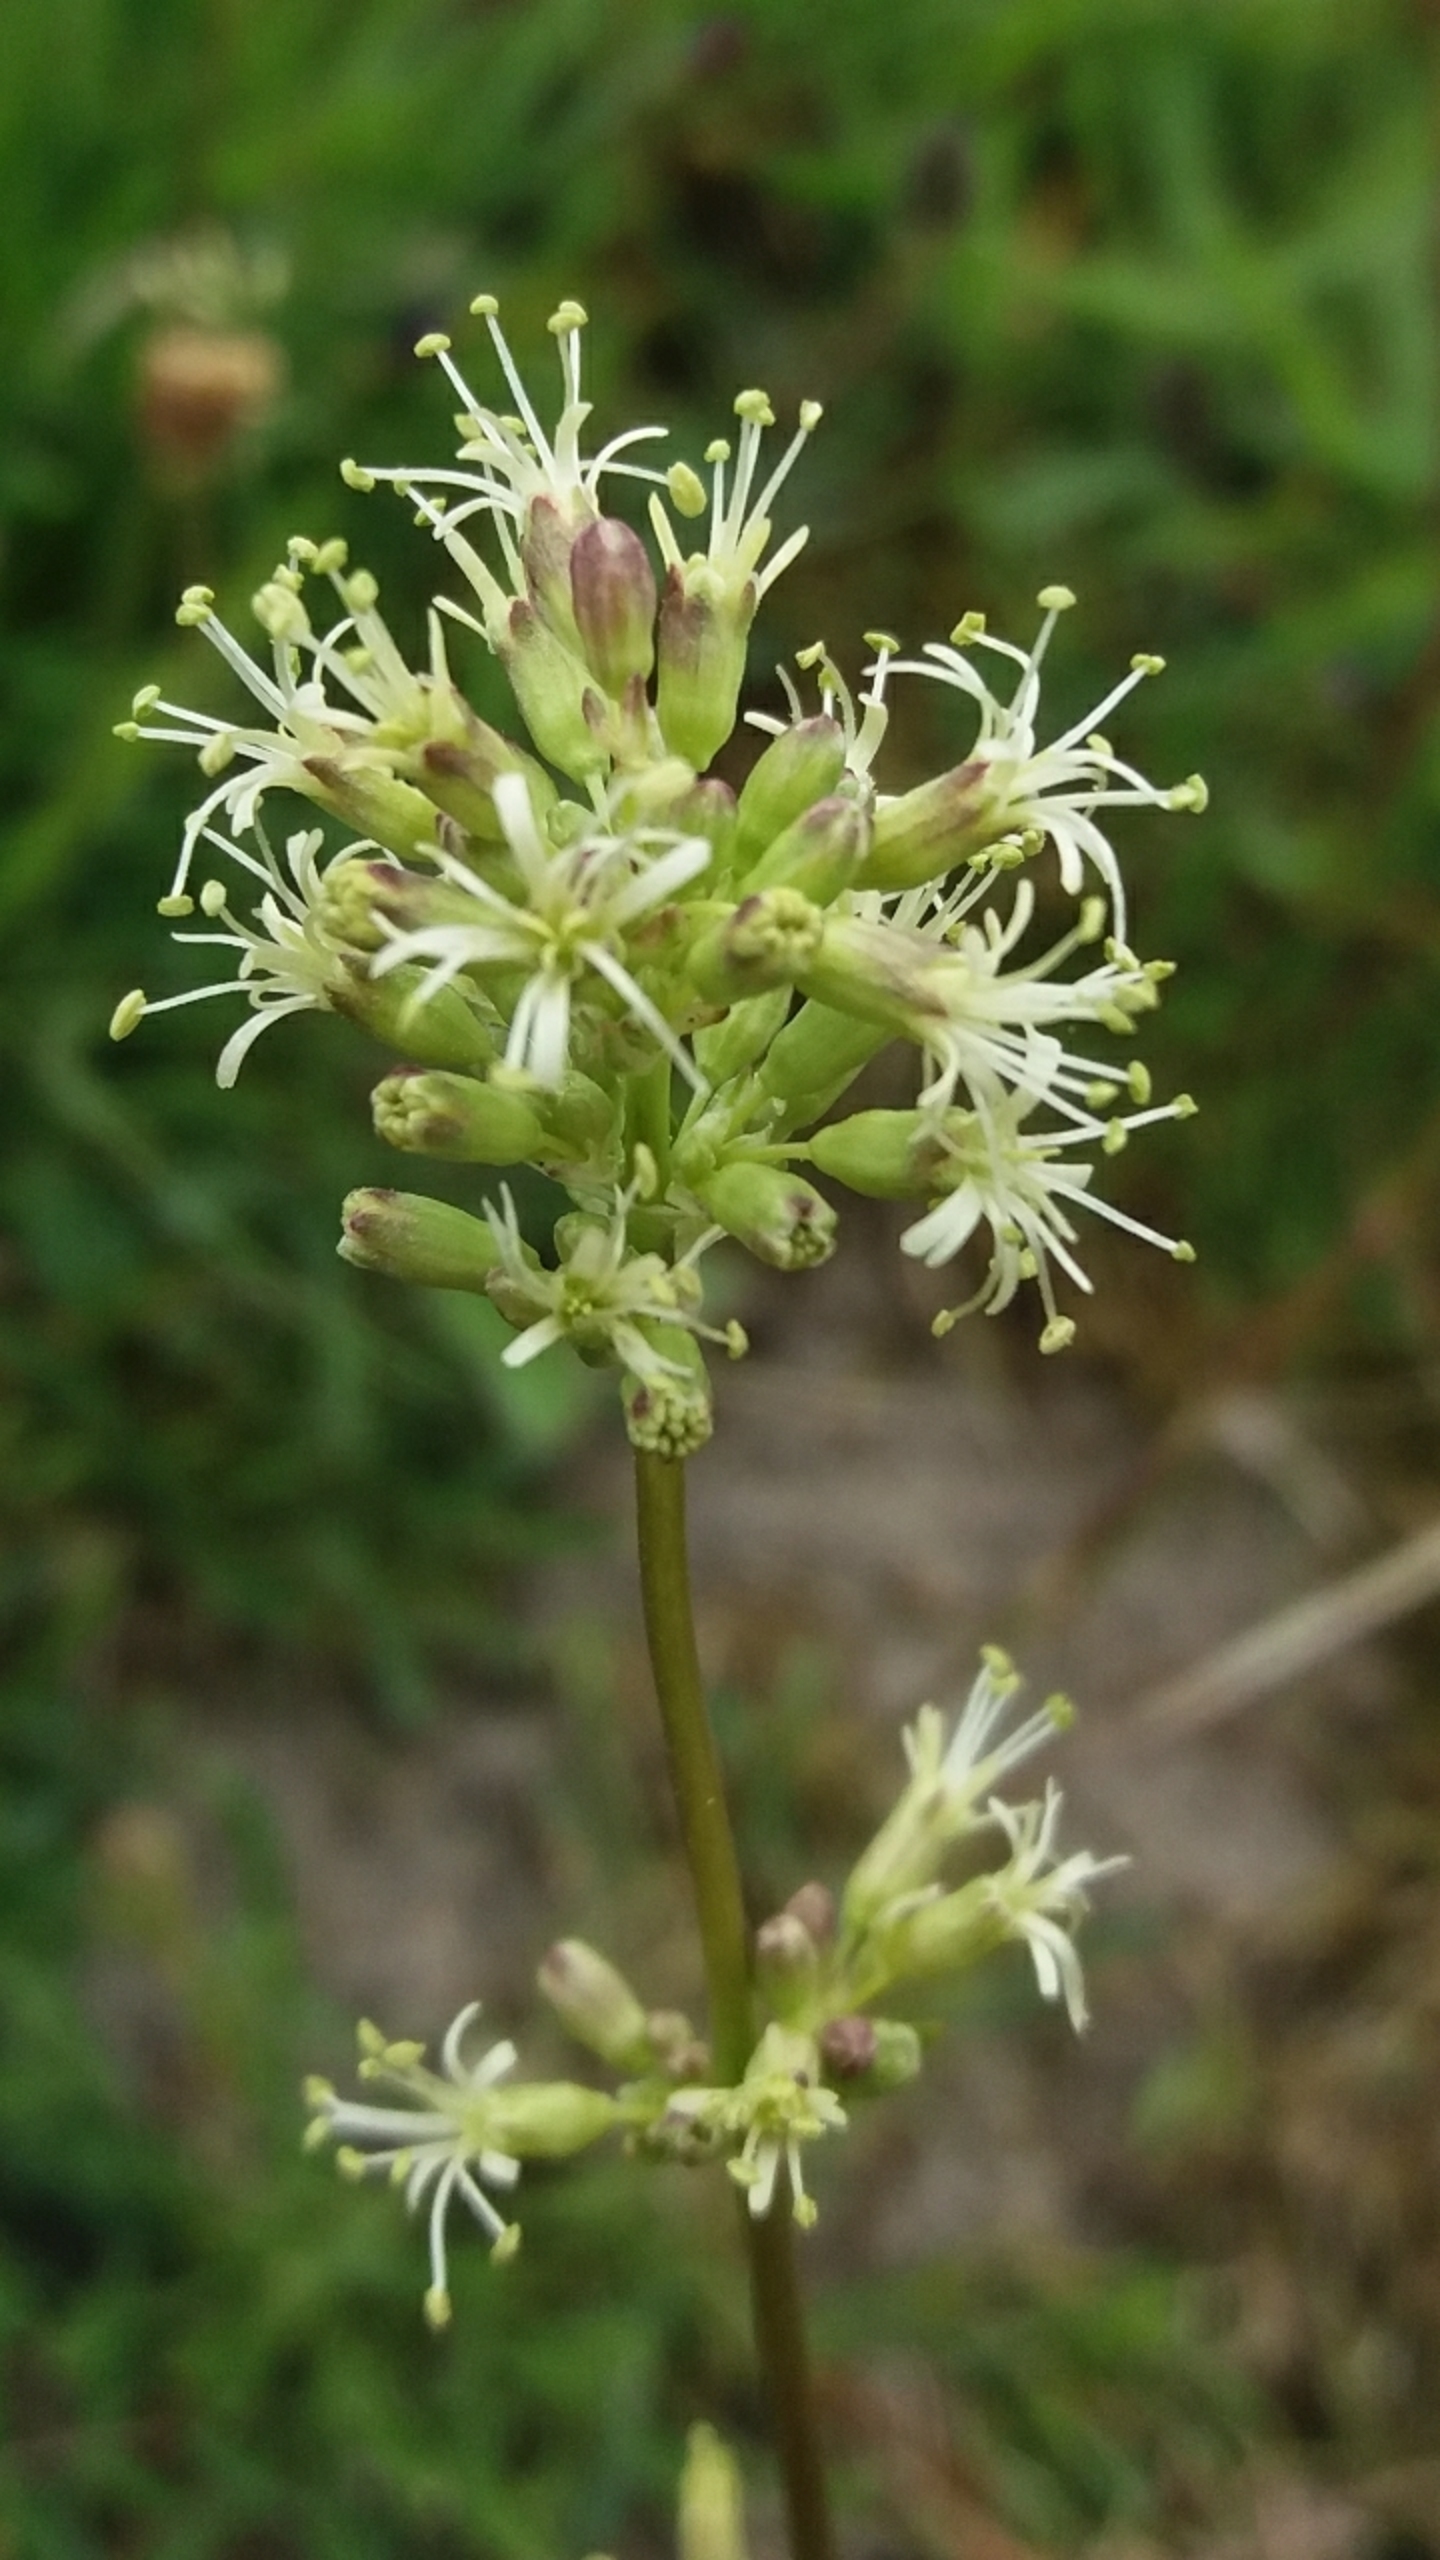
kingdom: Plantae
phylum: Tracheophyta
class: Magnoliopsida
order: Caryophyllales
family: Caryophyllaceae
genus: Silene
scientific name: Silene otites
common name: Klit-limurt
